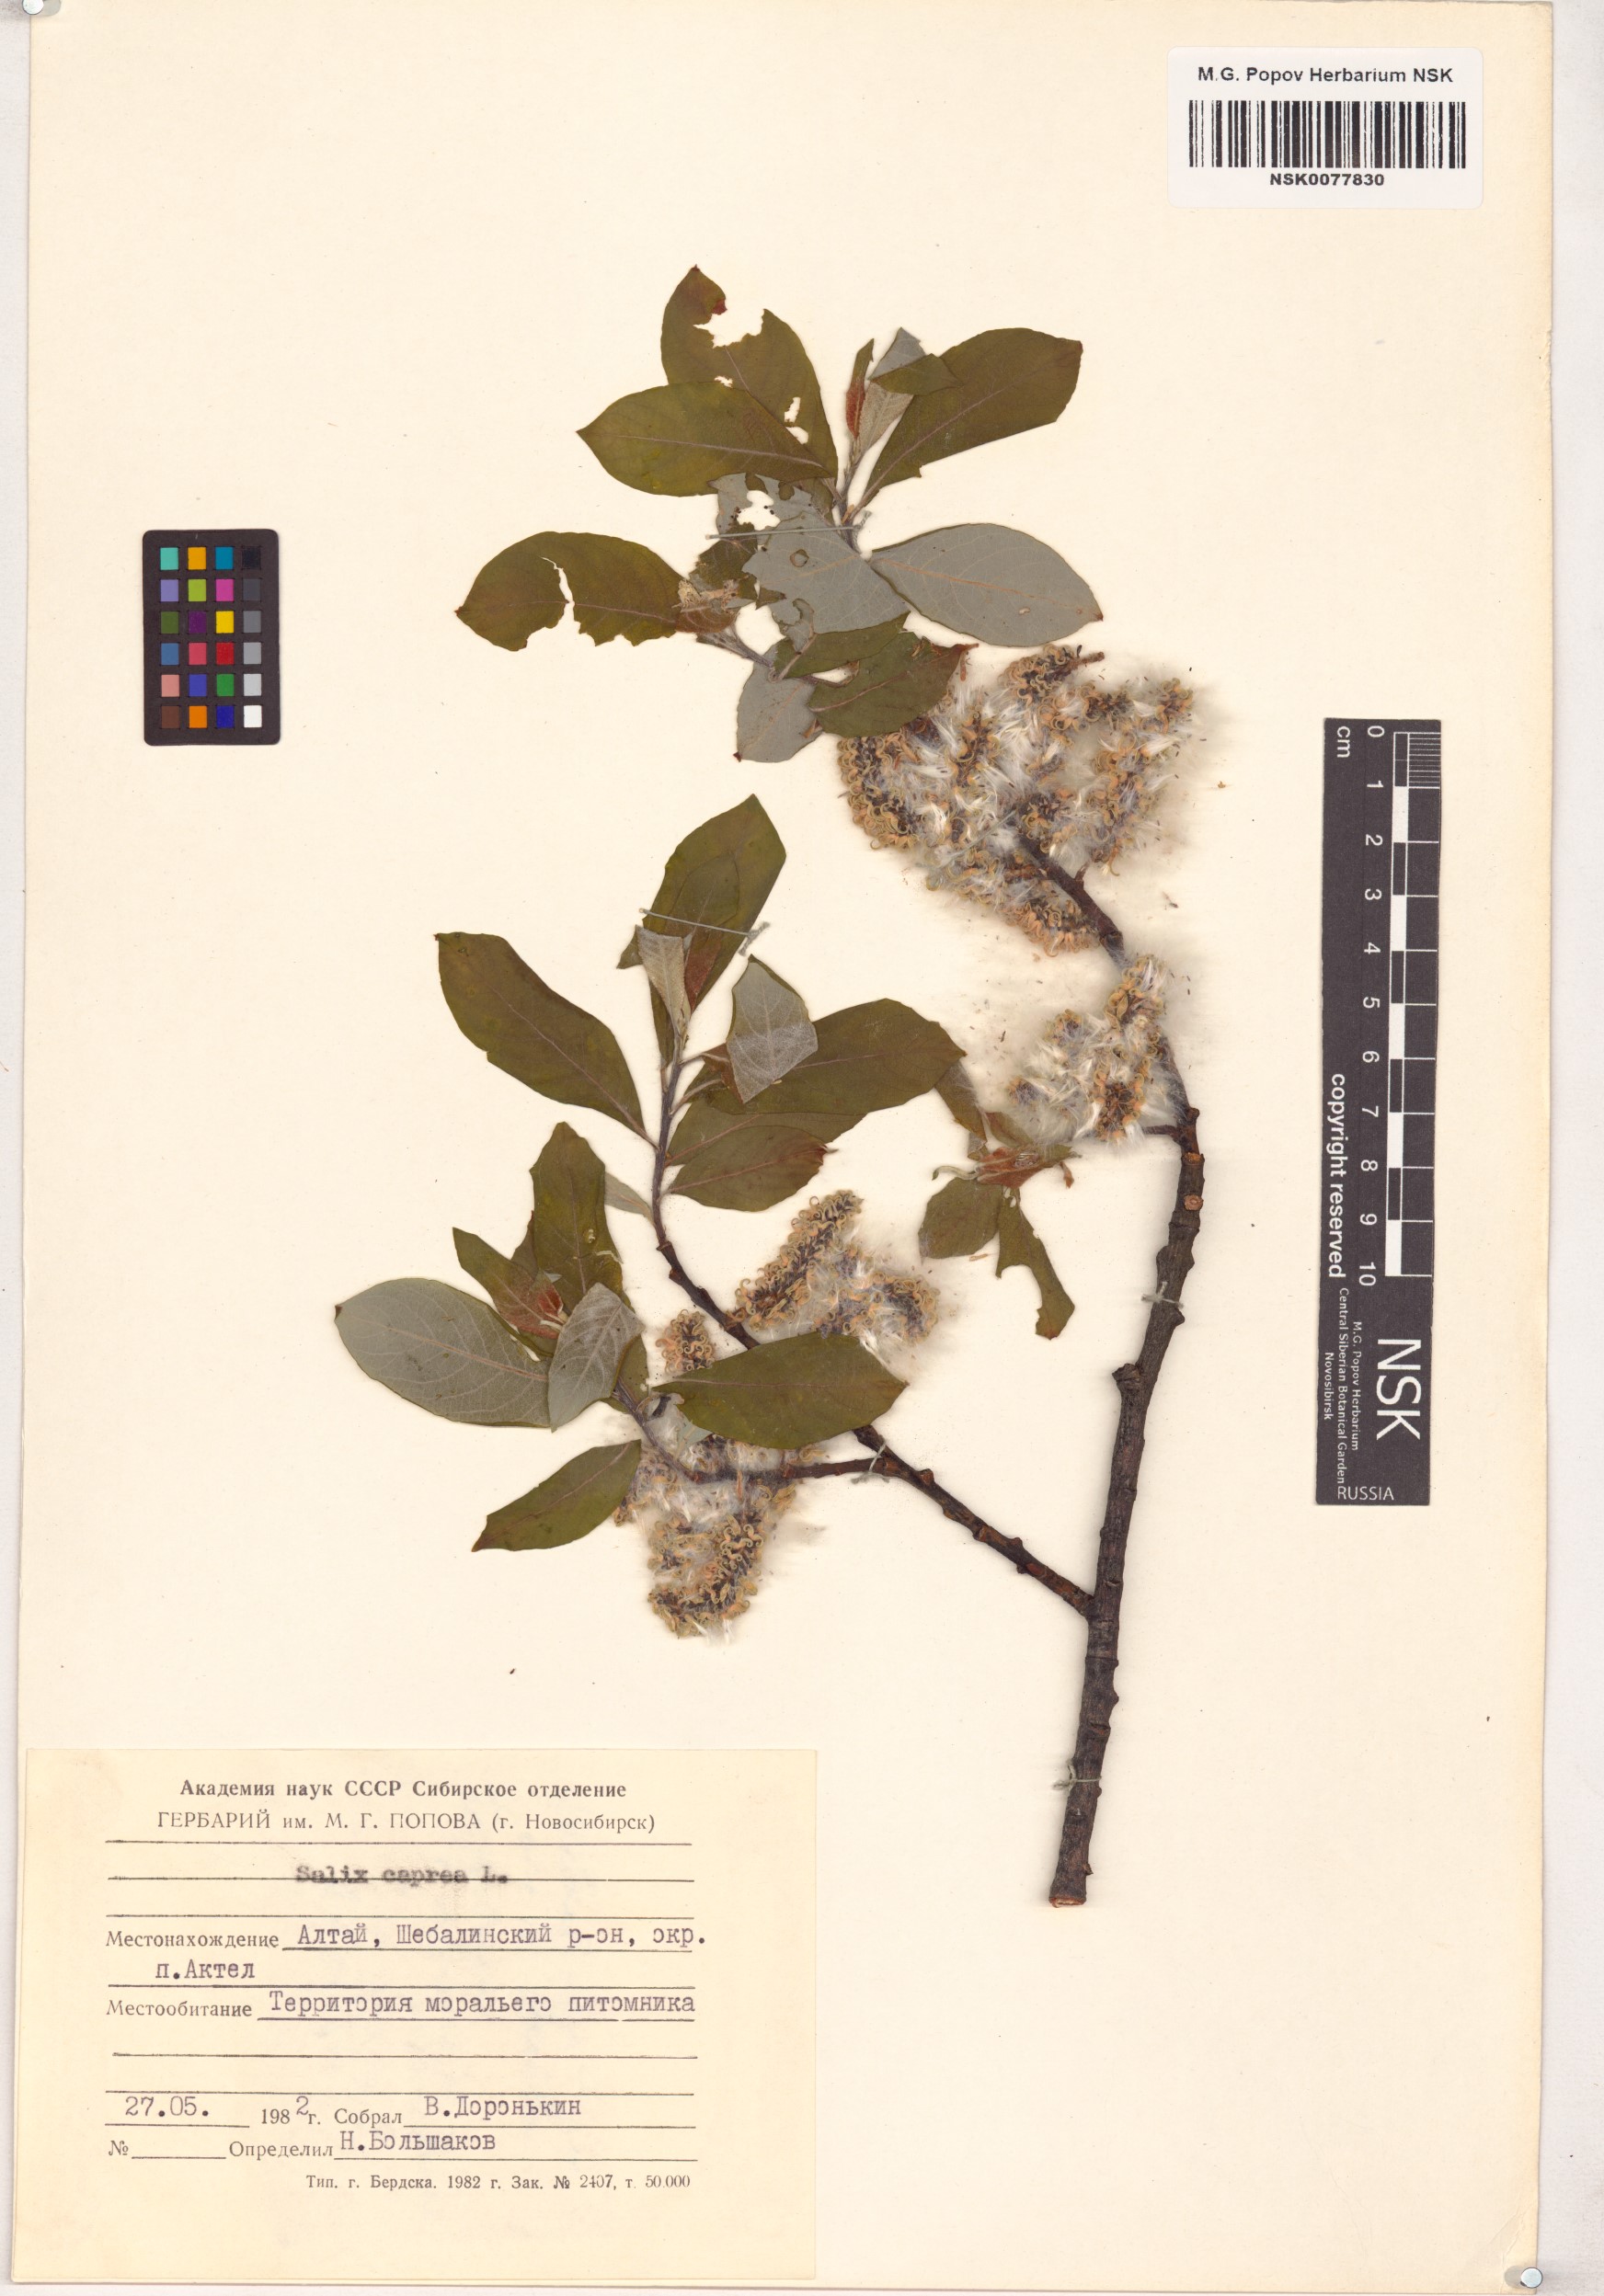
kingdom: Plantae
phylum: Tracheophyta
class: Magnoliopsida
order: Malpighiales
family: Salicaceae
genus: Salix
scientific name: Salix caprea
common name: Goat willow
